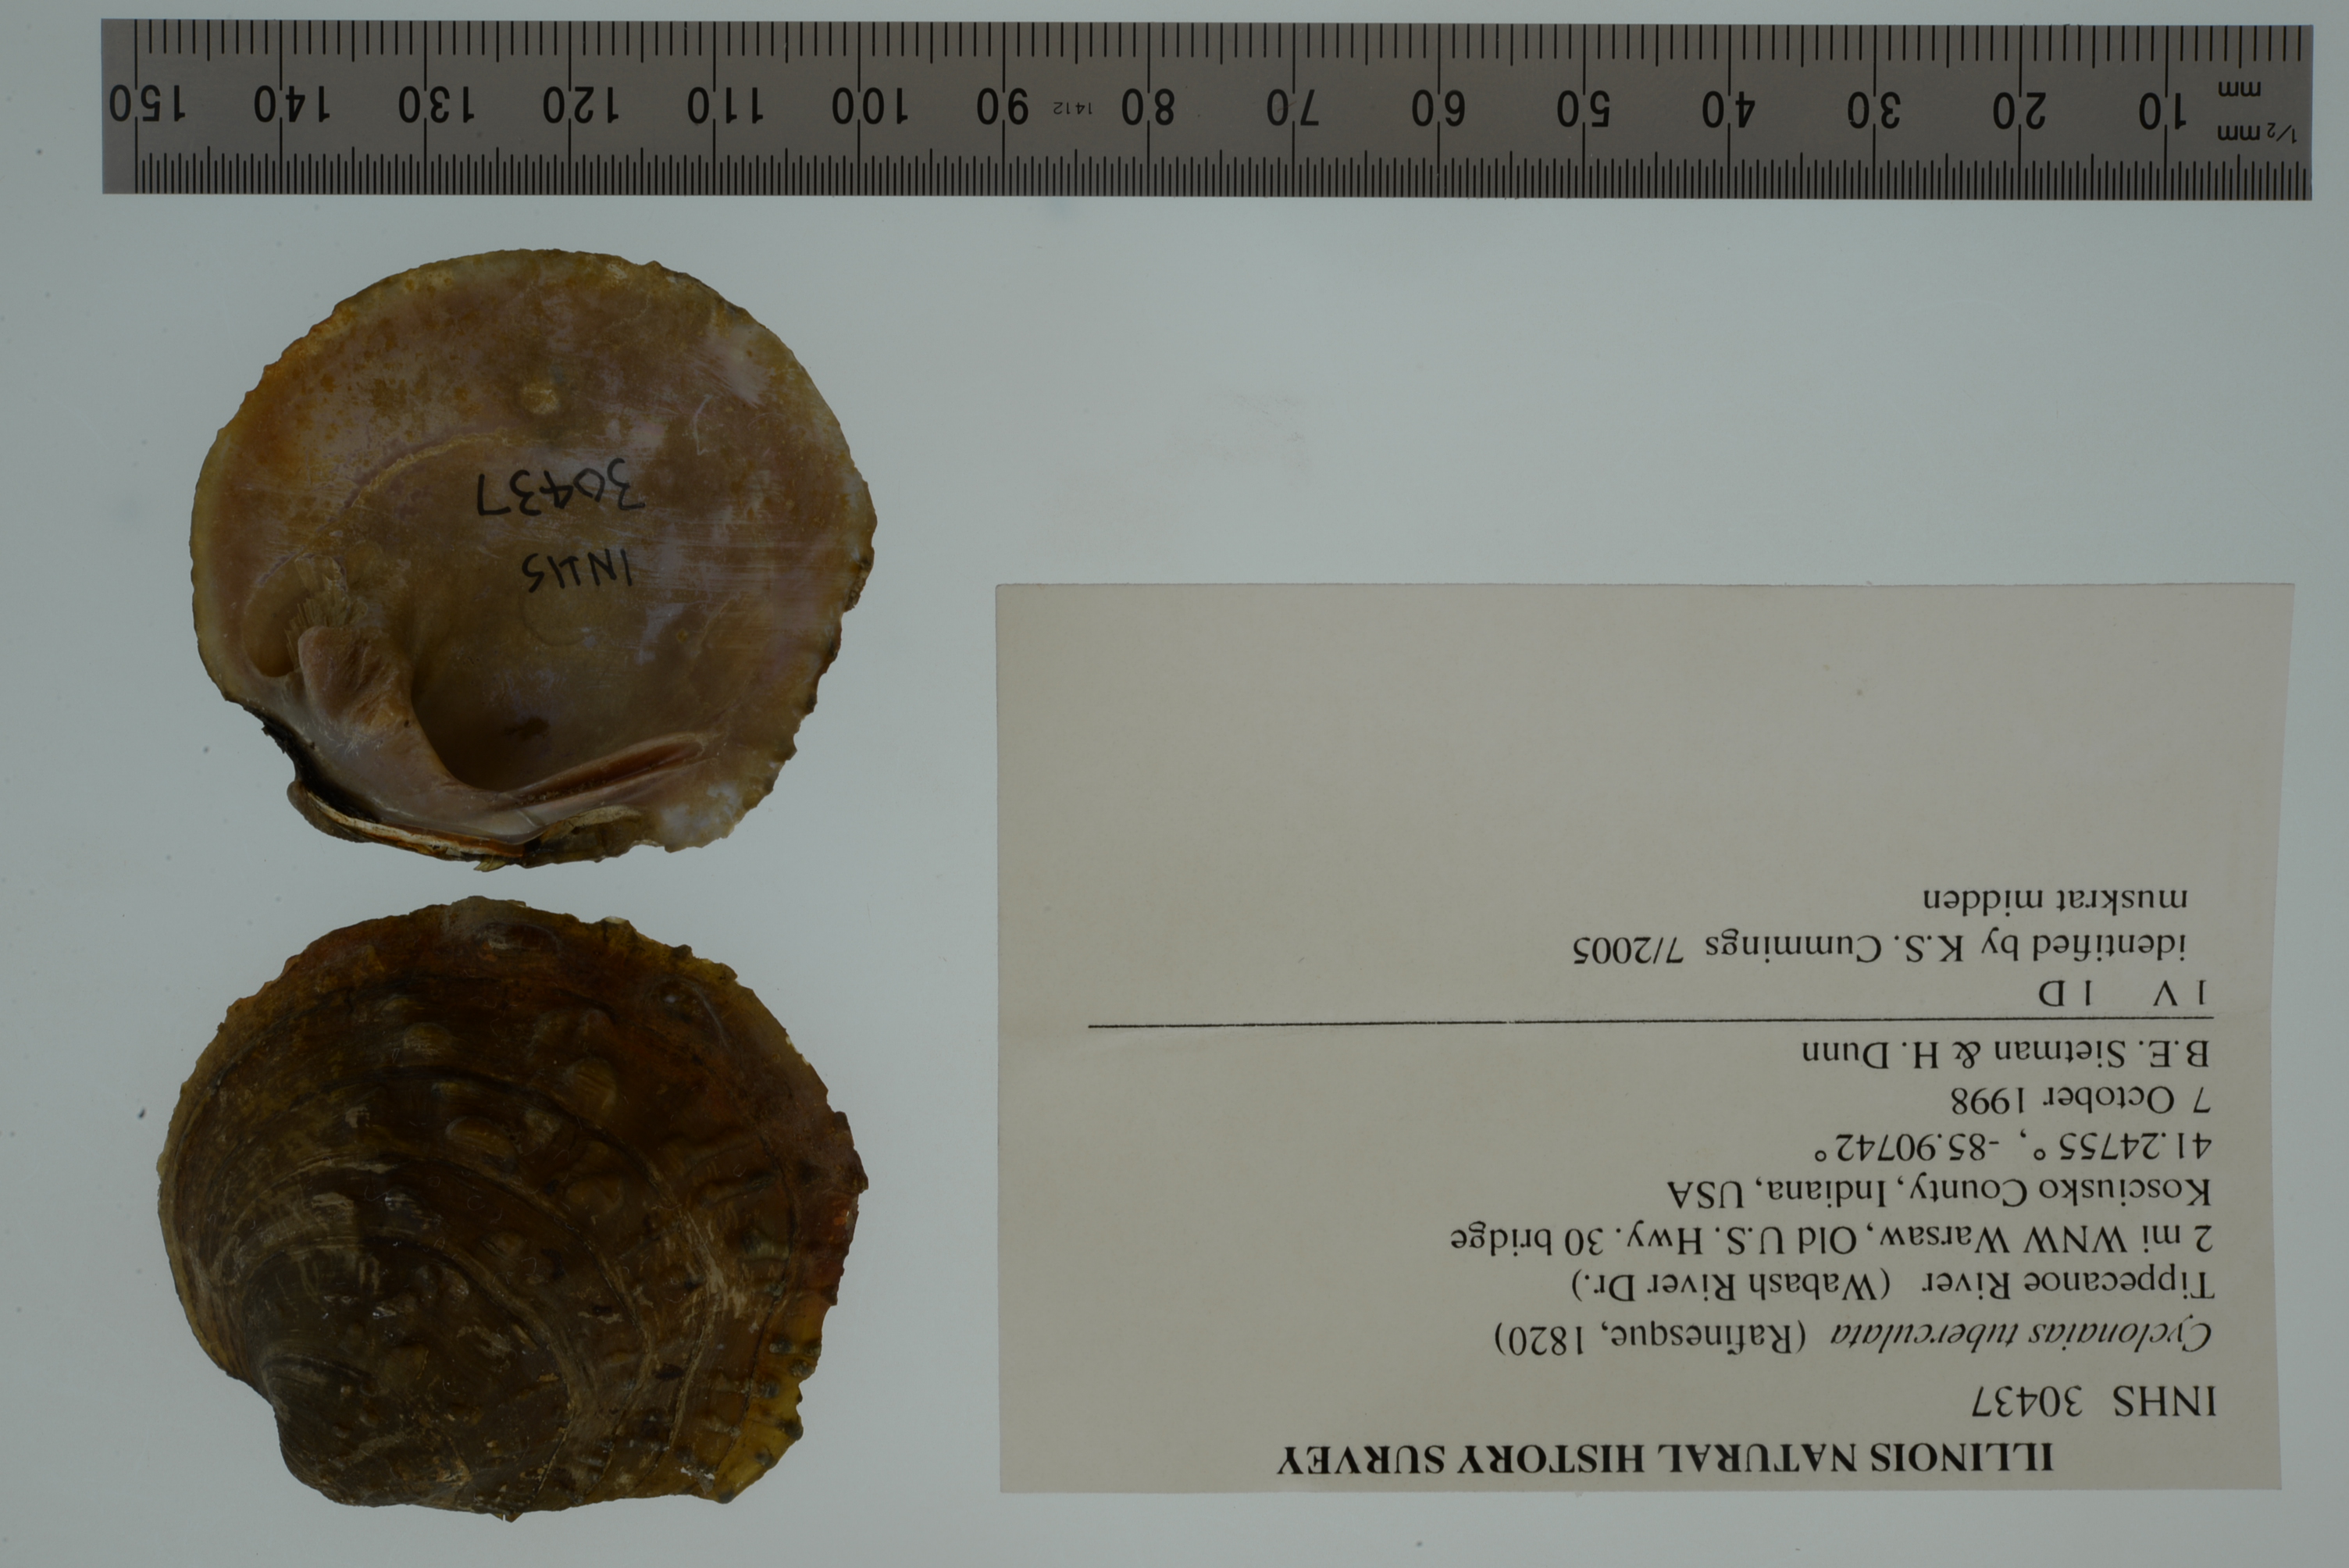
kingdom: Animalia
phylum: Mollusca
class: Bivalvia
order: Unionida
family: Unionidae
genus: Cyclonaias
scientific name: Cyclonaias tuberculata
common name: Purple wartyback
